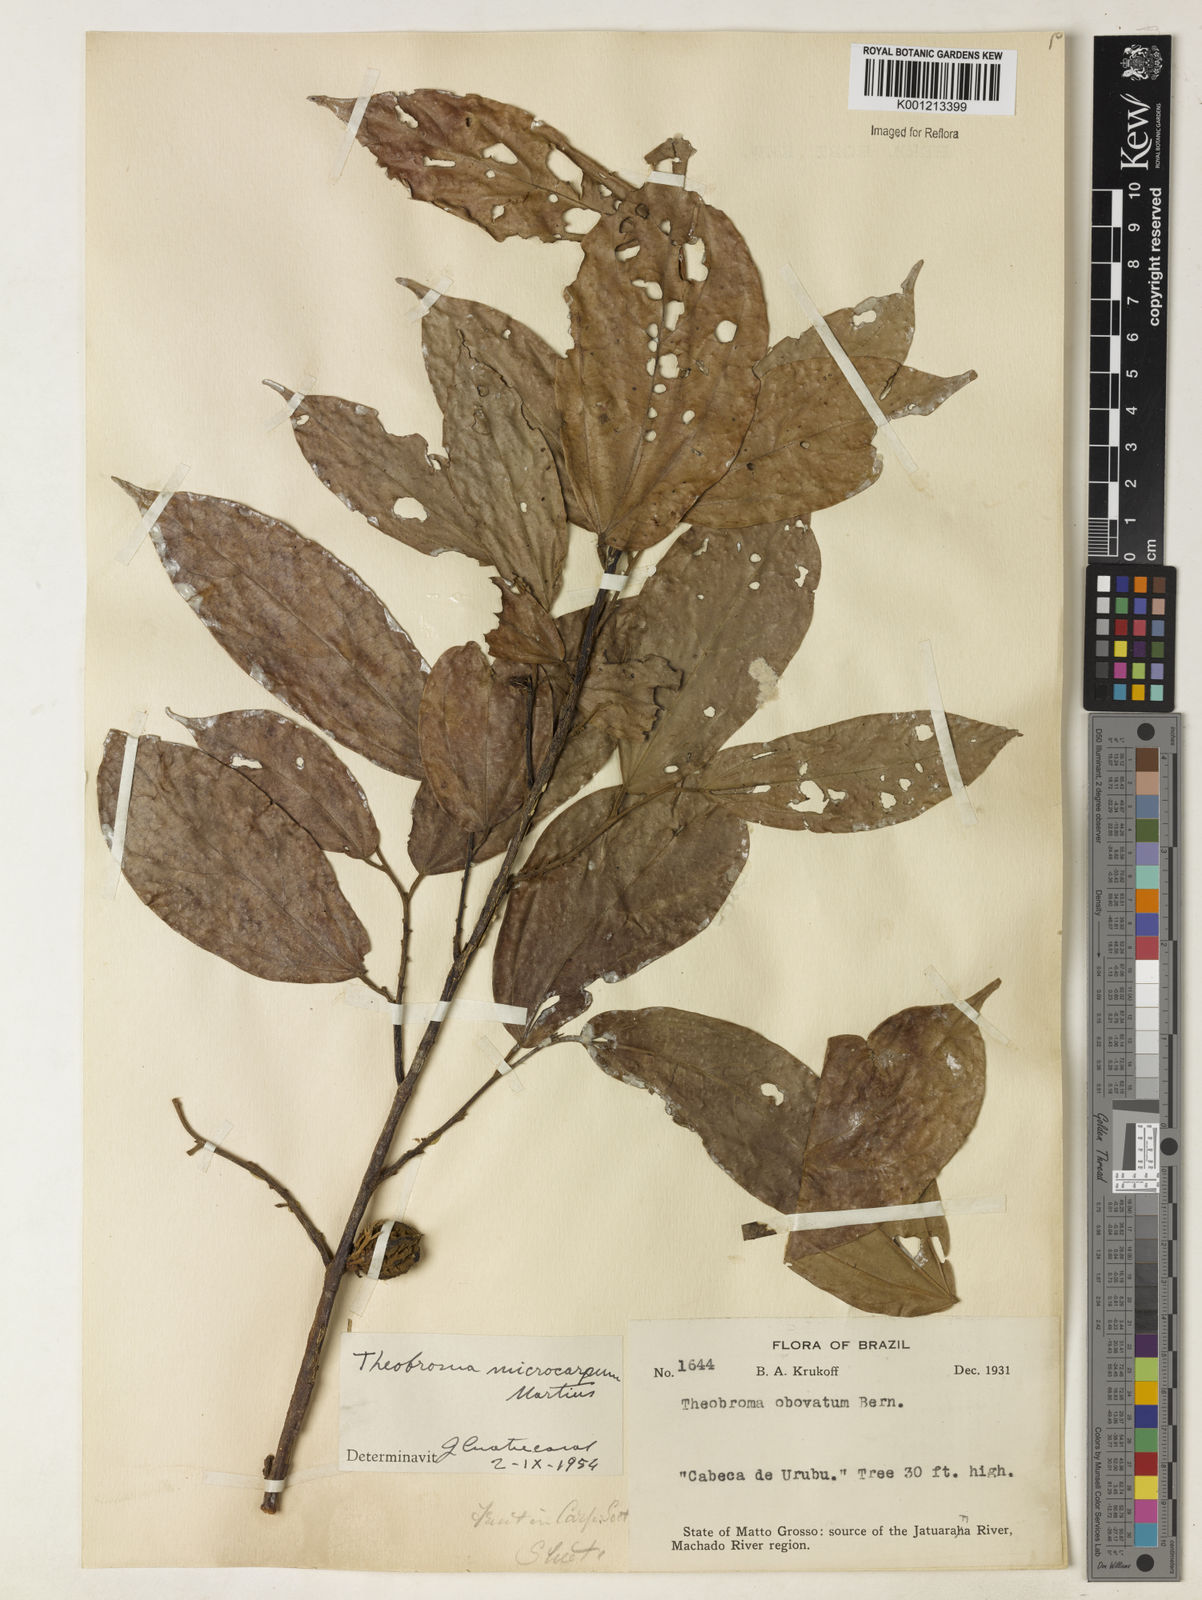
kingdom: Plantae
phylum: Tracheophyta
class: Magnoliopsida
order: Malvales
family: Malvaceae
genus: Theobroma
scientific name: Theobroma microcarpum
